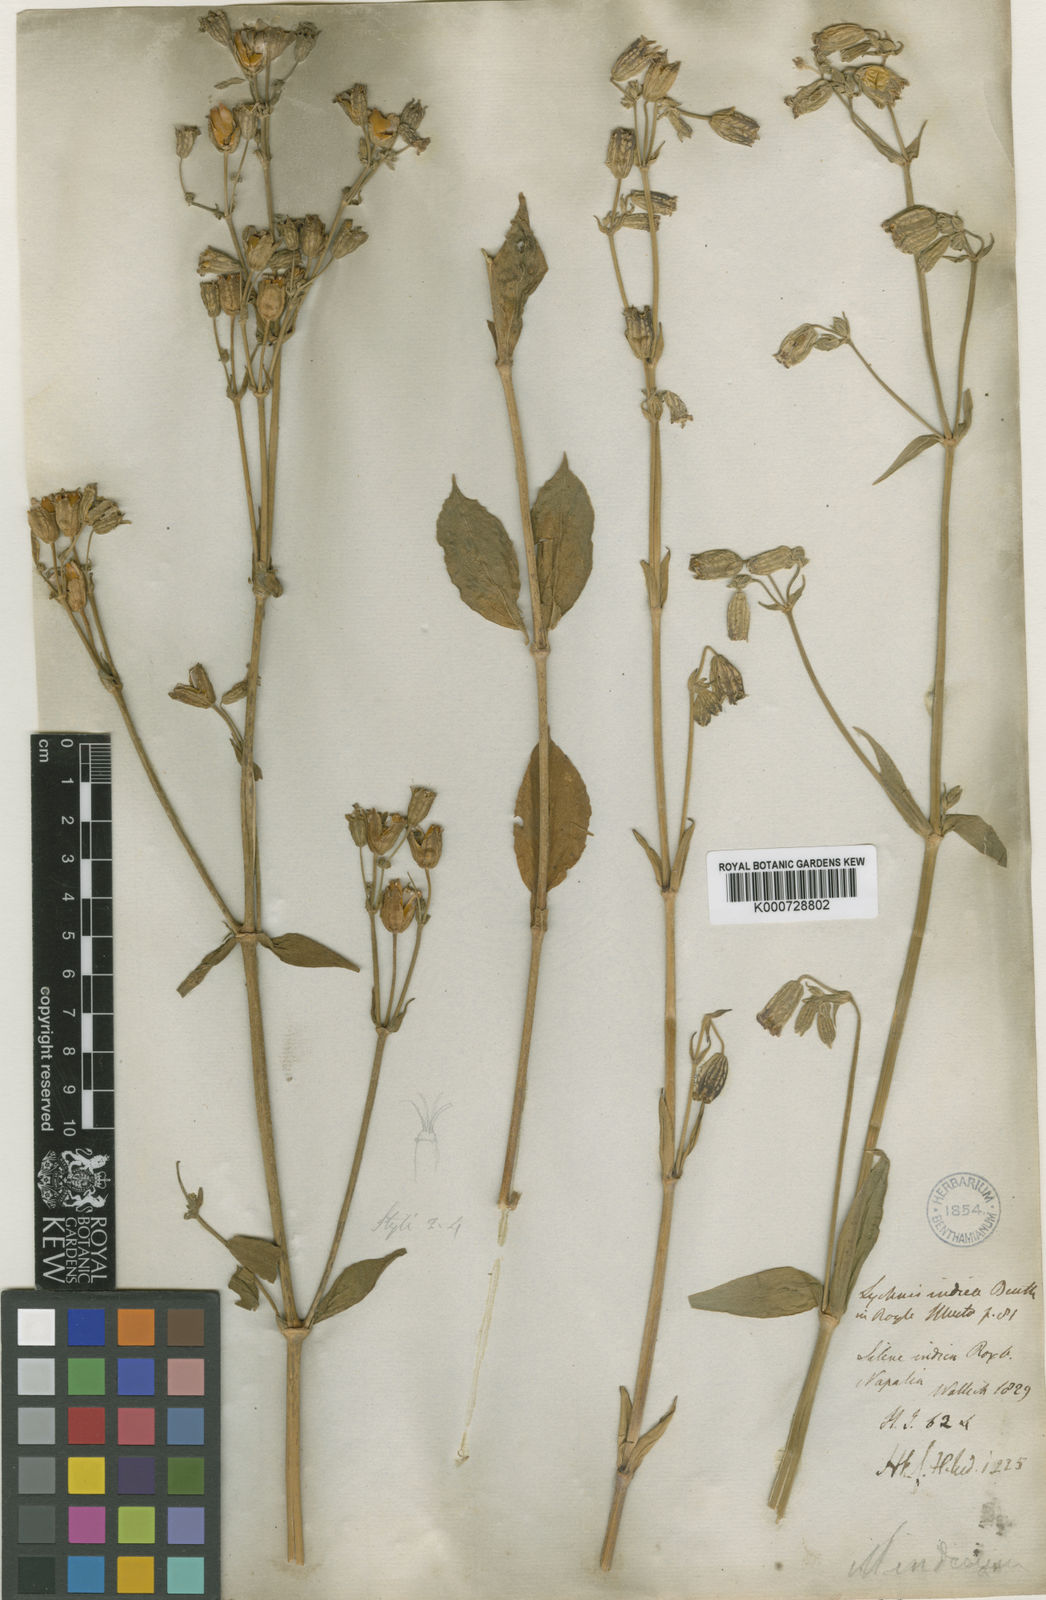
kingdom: Plantae
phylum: Tracheophyta
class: Magnoliopsida
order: Caryophyllales
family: Caryophyllaceae
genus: Silene
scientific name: Silene
